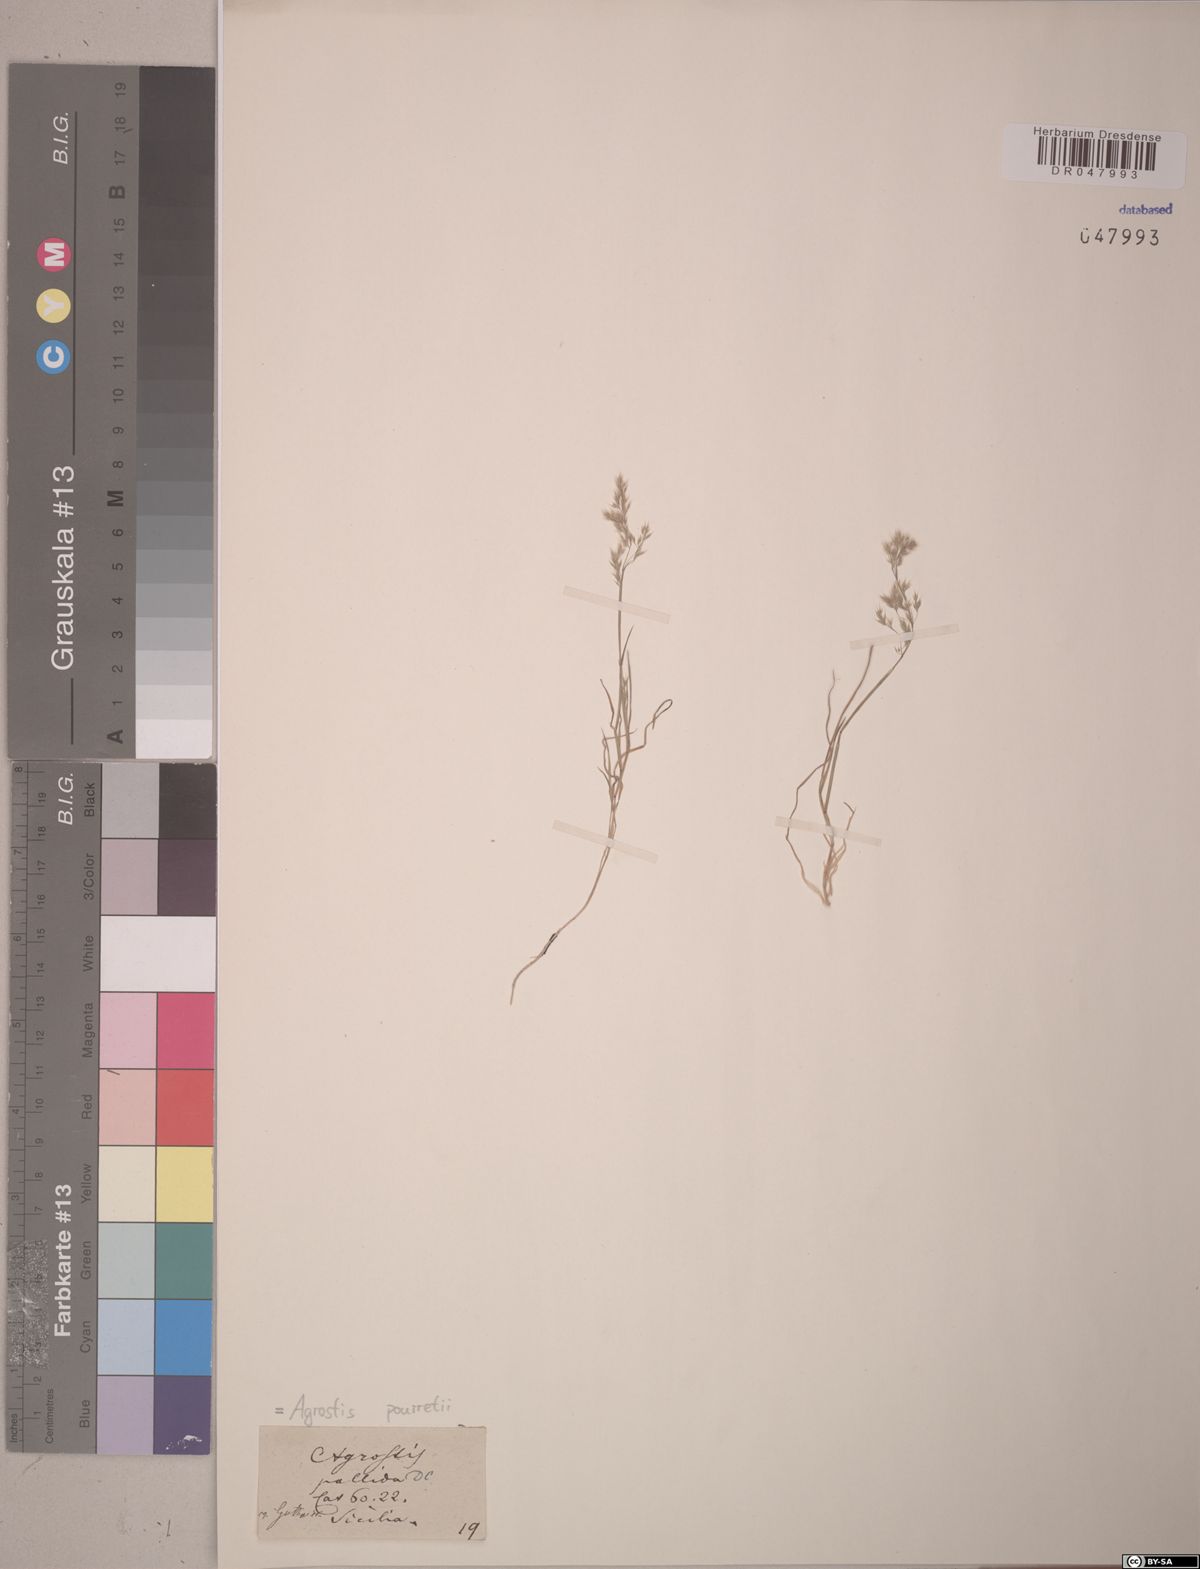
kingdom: Plantae
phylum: Tracheophyta
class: Liliopsida
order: Poales
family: Poaceae
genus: Agrostis
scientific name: Agrostis pourretii
